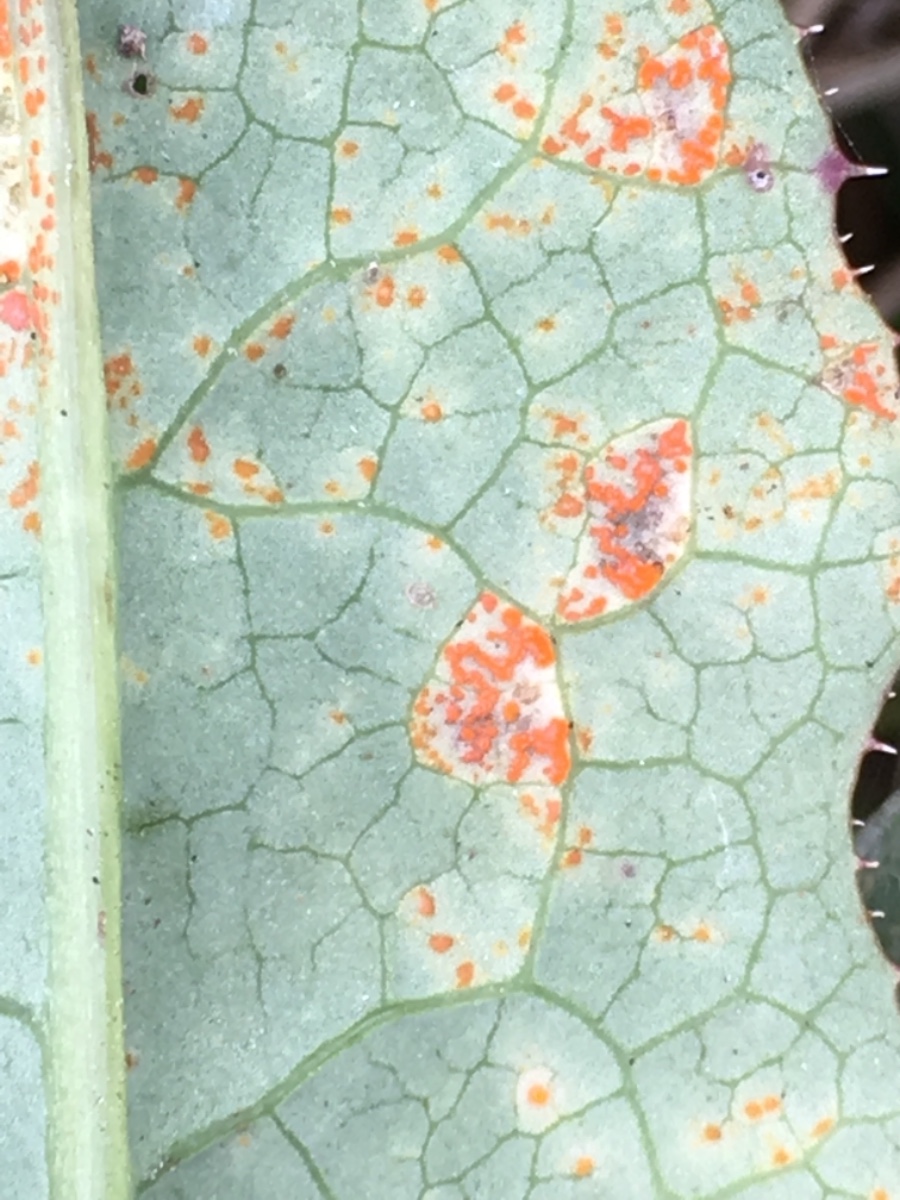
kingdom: Fungi
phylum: Basidiomycota
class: Pucciniomycetes
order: Pucciniales
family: Coleosporiaceae
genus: Coleosporium
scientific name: Coleosporium sonchi
